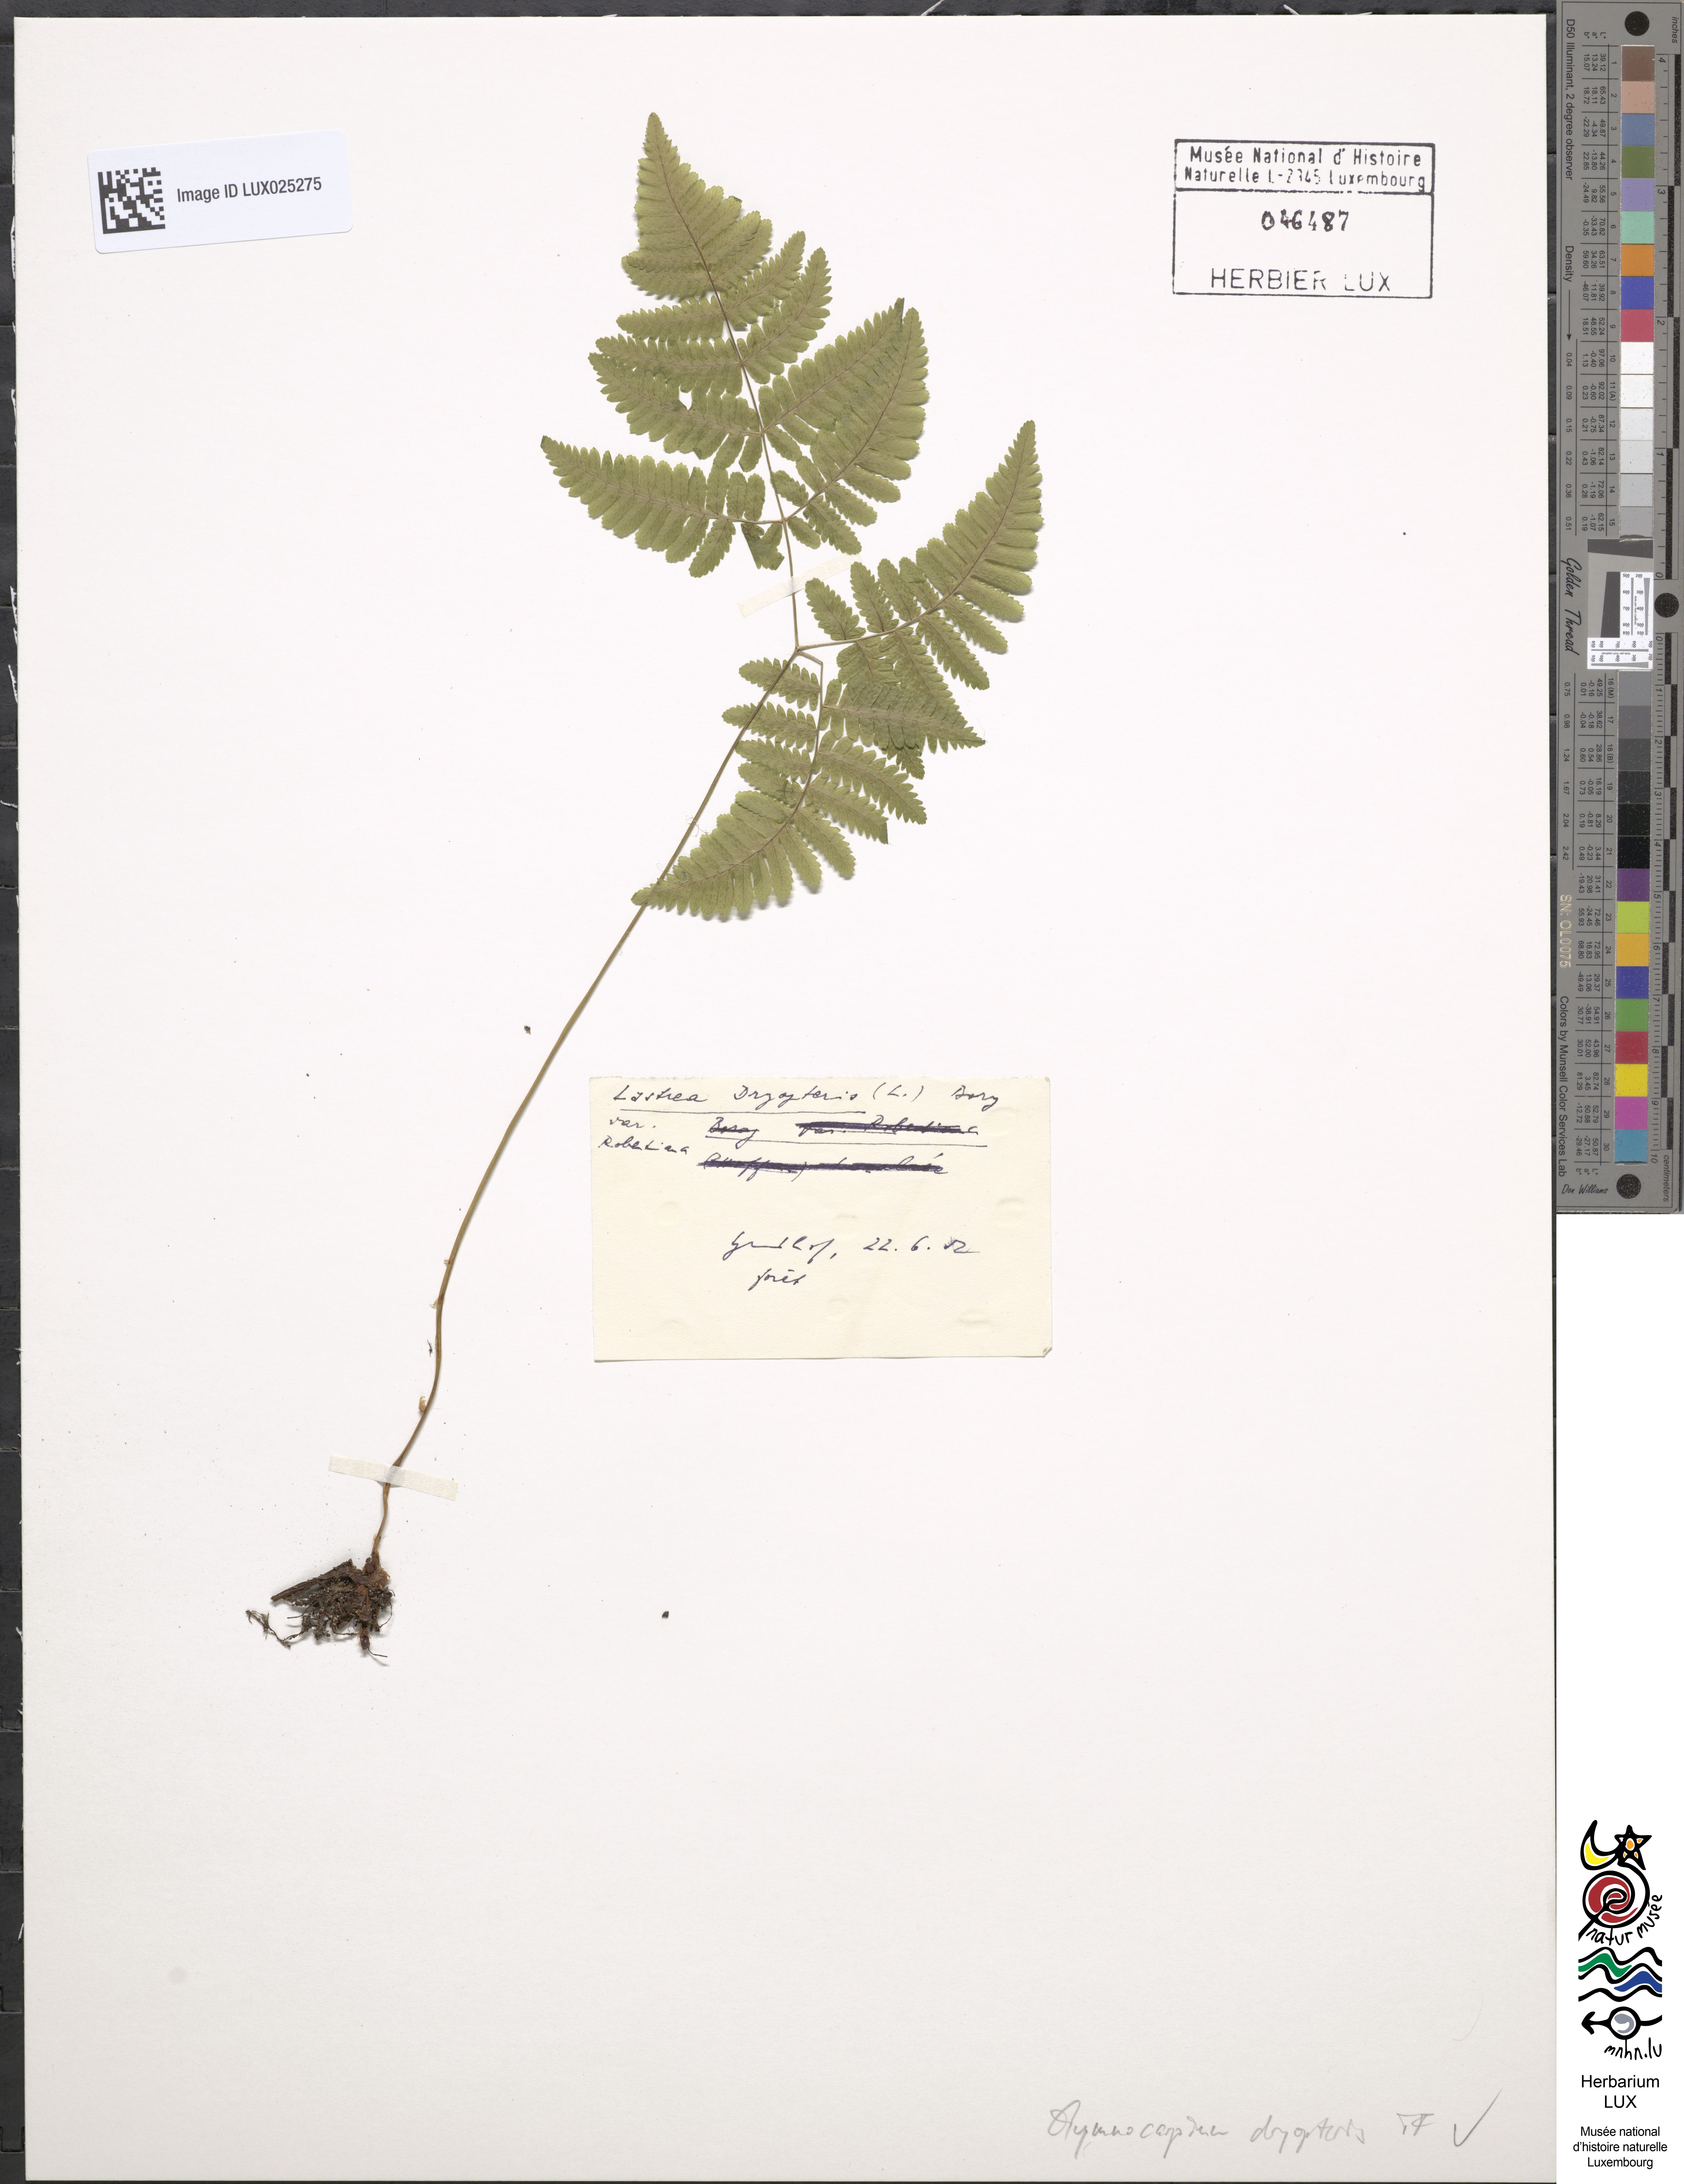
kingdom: Plantae
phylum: Tracheophyta
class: Polypodiopsida
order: Polypodiales
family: Cystopteridaceae
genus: Gymnocarpium
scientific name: Gymnocarpium dryopteris
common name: Oak fern
